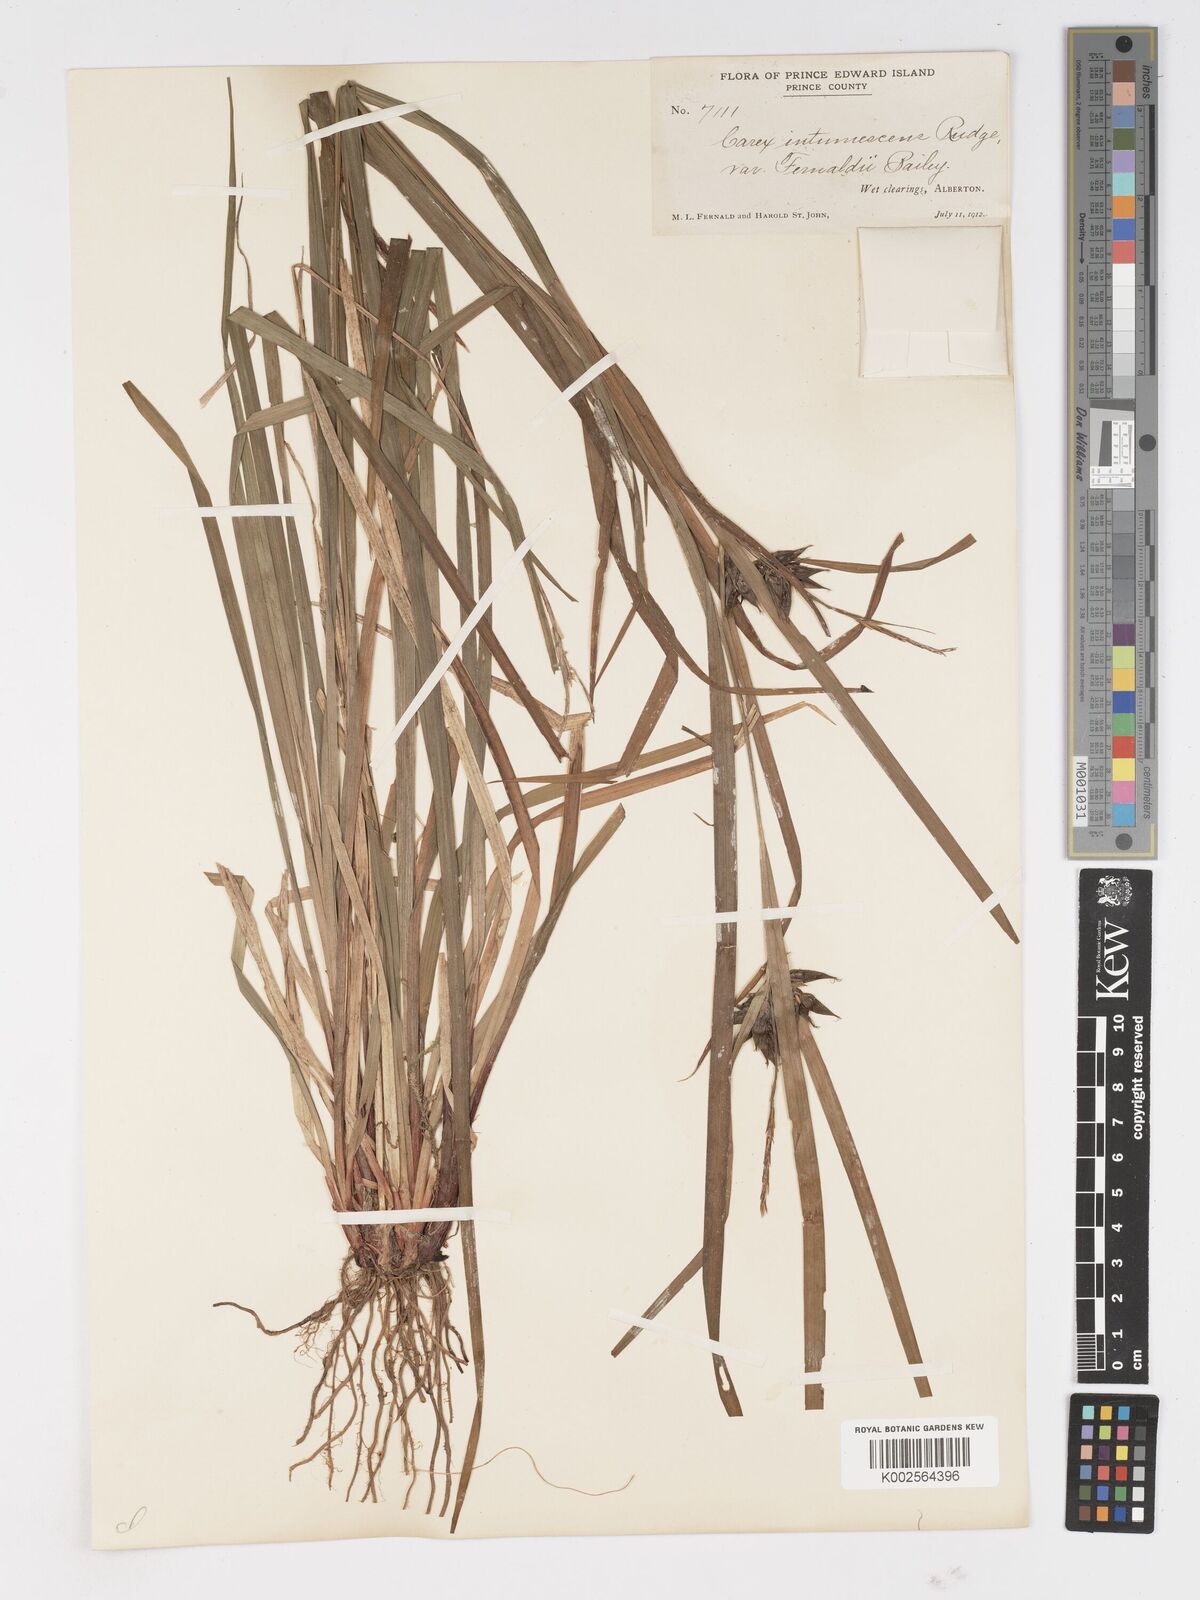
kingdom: Plantae
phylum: Tracheophyta
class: Liliopsida
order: Poales
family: Cyperaceae
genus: Carex
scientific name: Carex intumescens
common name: Greater bladder sedge
